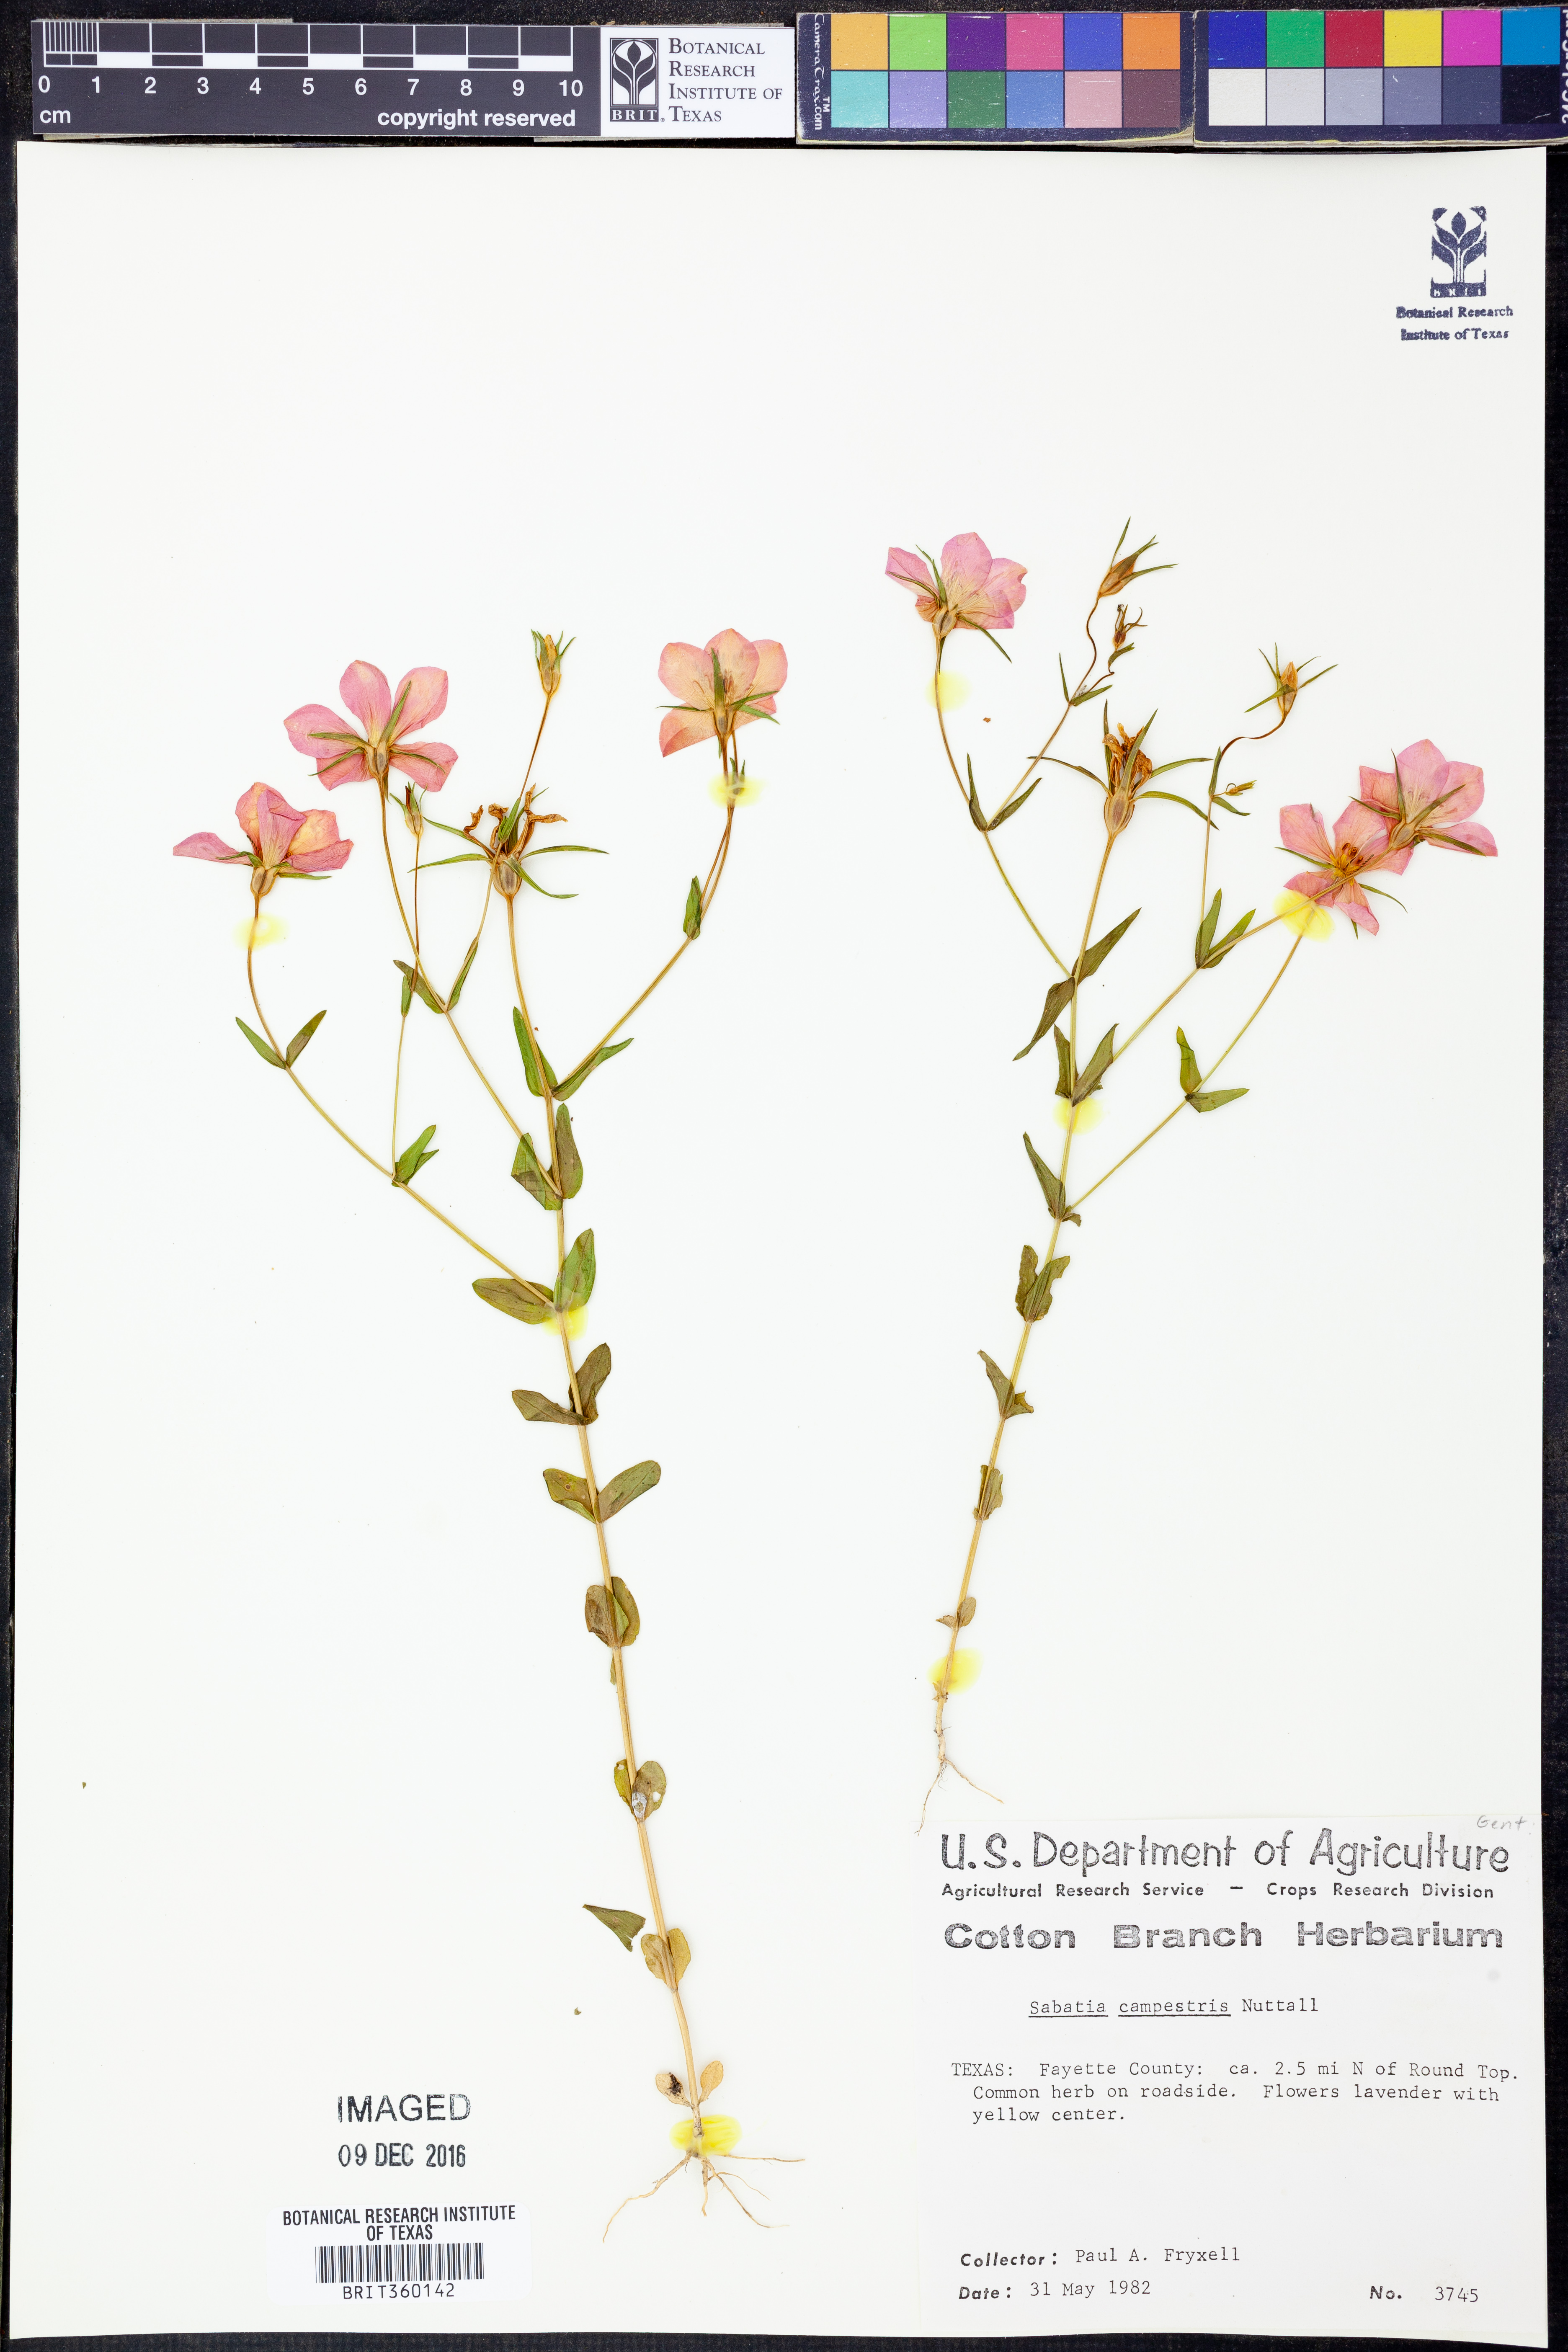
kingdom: Plantae
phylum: Tracheophyta
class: Magnoliopsida
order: Gentianales
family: Gentianaceae
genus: Sabatia
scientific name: Sabatia campestris
